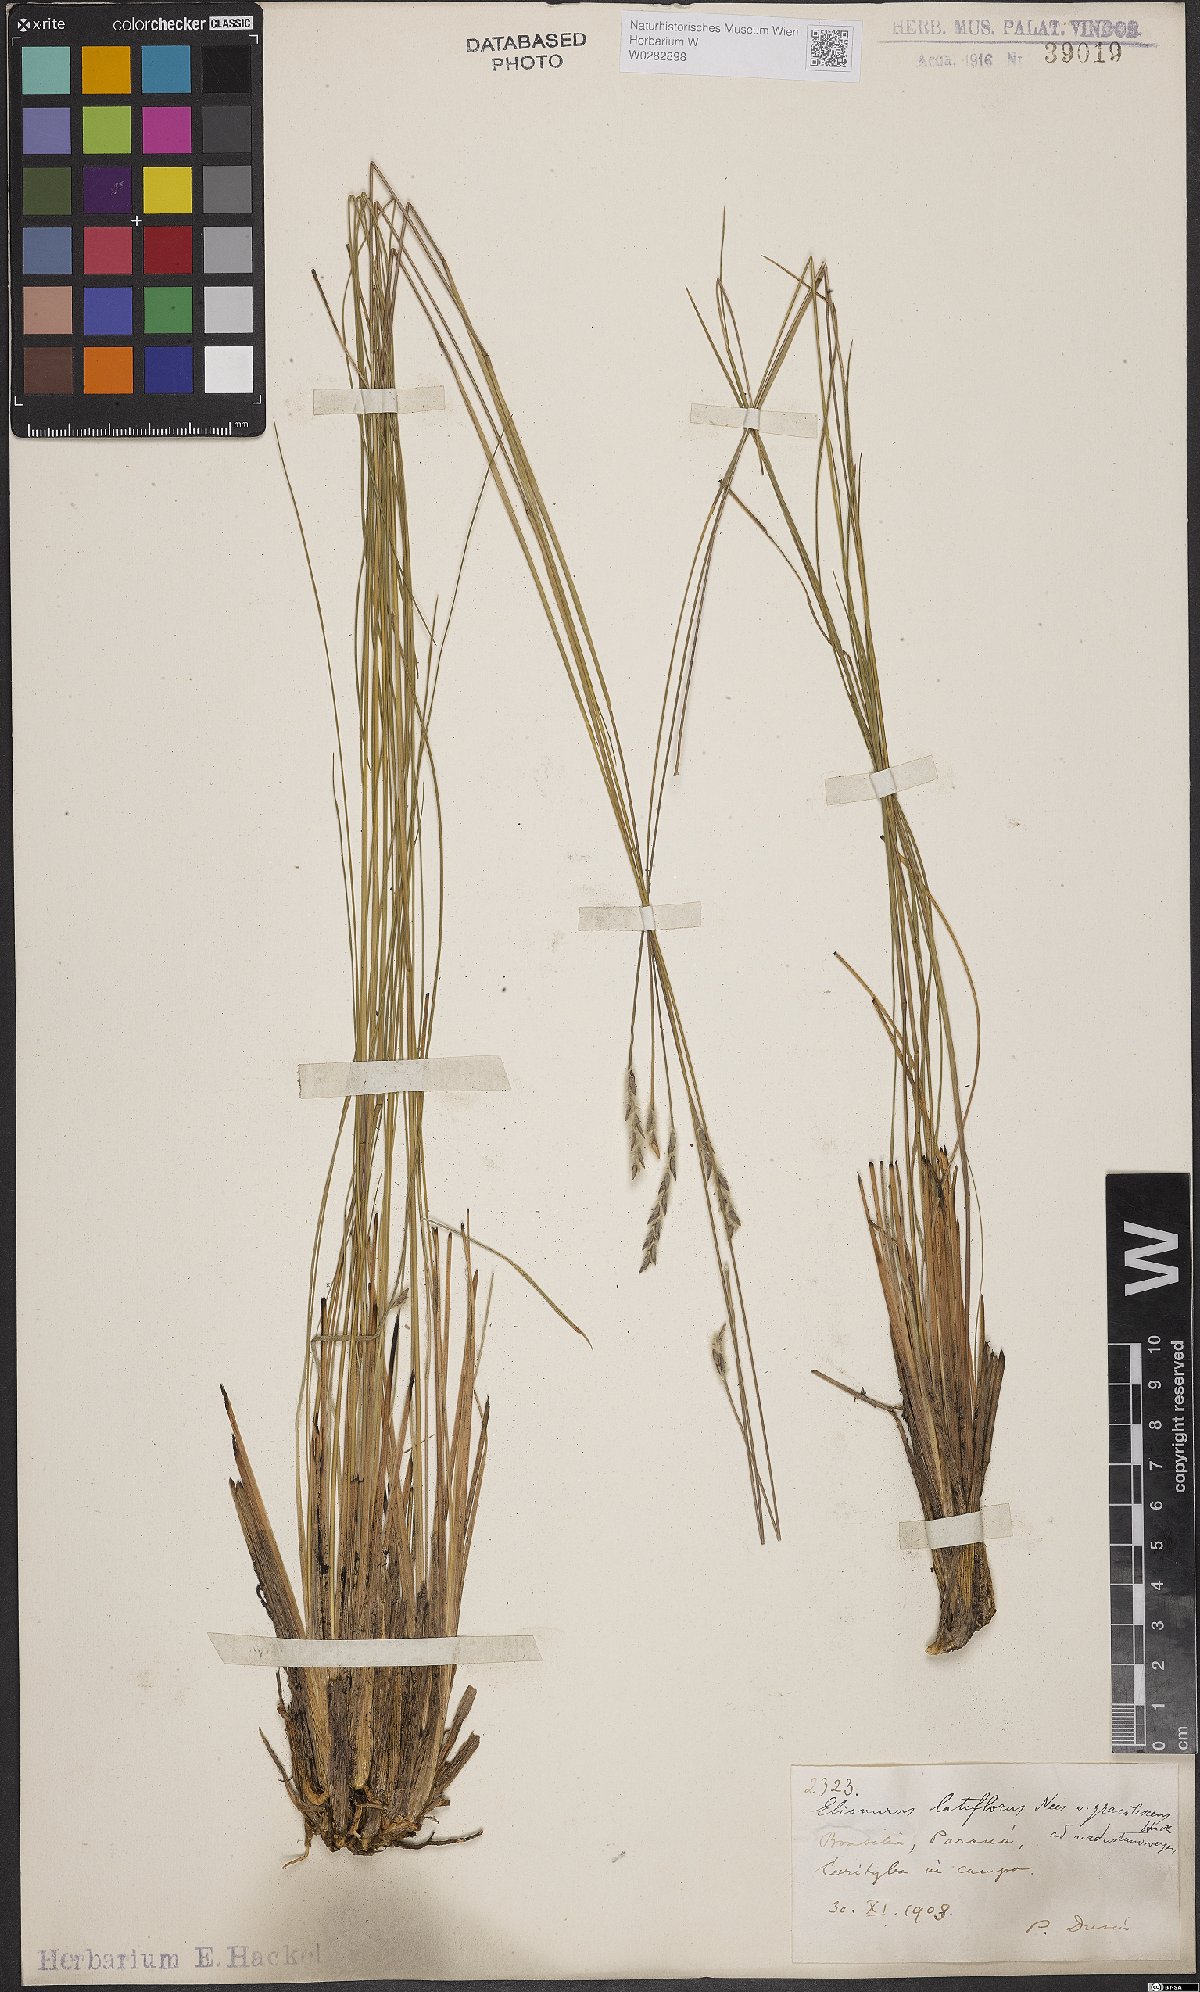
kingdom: Plantae
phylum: Tracheophyta
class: Liliopsida
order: Poales
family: Poaceae
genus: Elionurus
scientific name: Elionurus muticus
